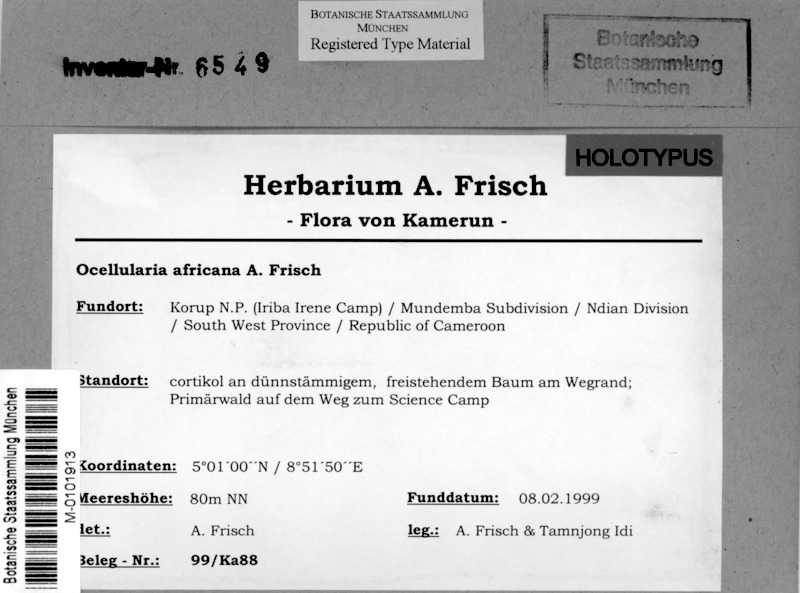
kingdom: Fungi
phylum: Ascomycota
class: Lecanoromycetes
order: Ostropales
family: Graphidaceae
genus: Ocellularia
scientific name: Ocellularia africana
